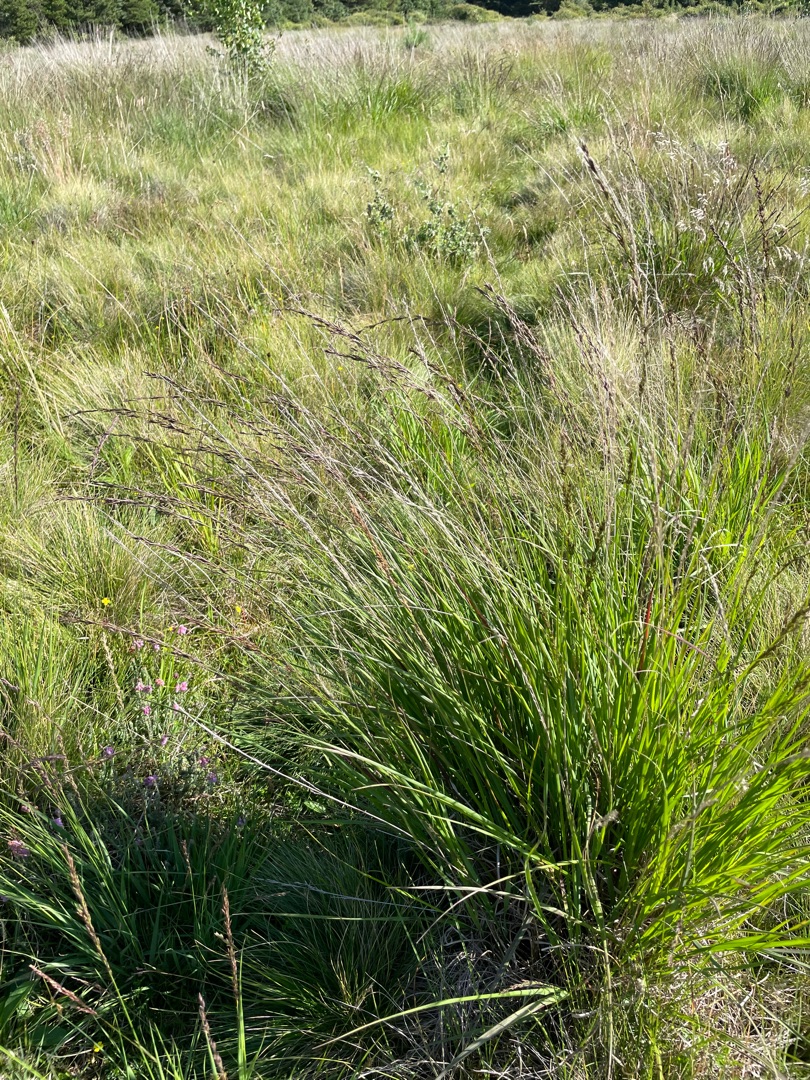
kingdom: Plantae
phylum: Tracheophyta
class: Liliopsida
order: Poales
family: Poaceae
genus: Molinia
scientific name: Molinia caerulea
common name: Blåtop
